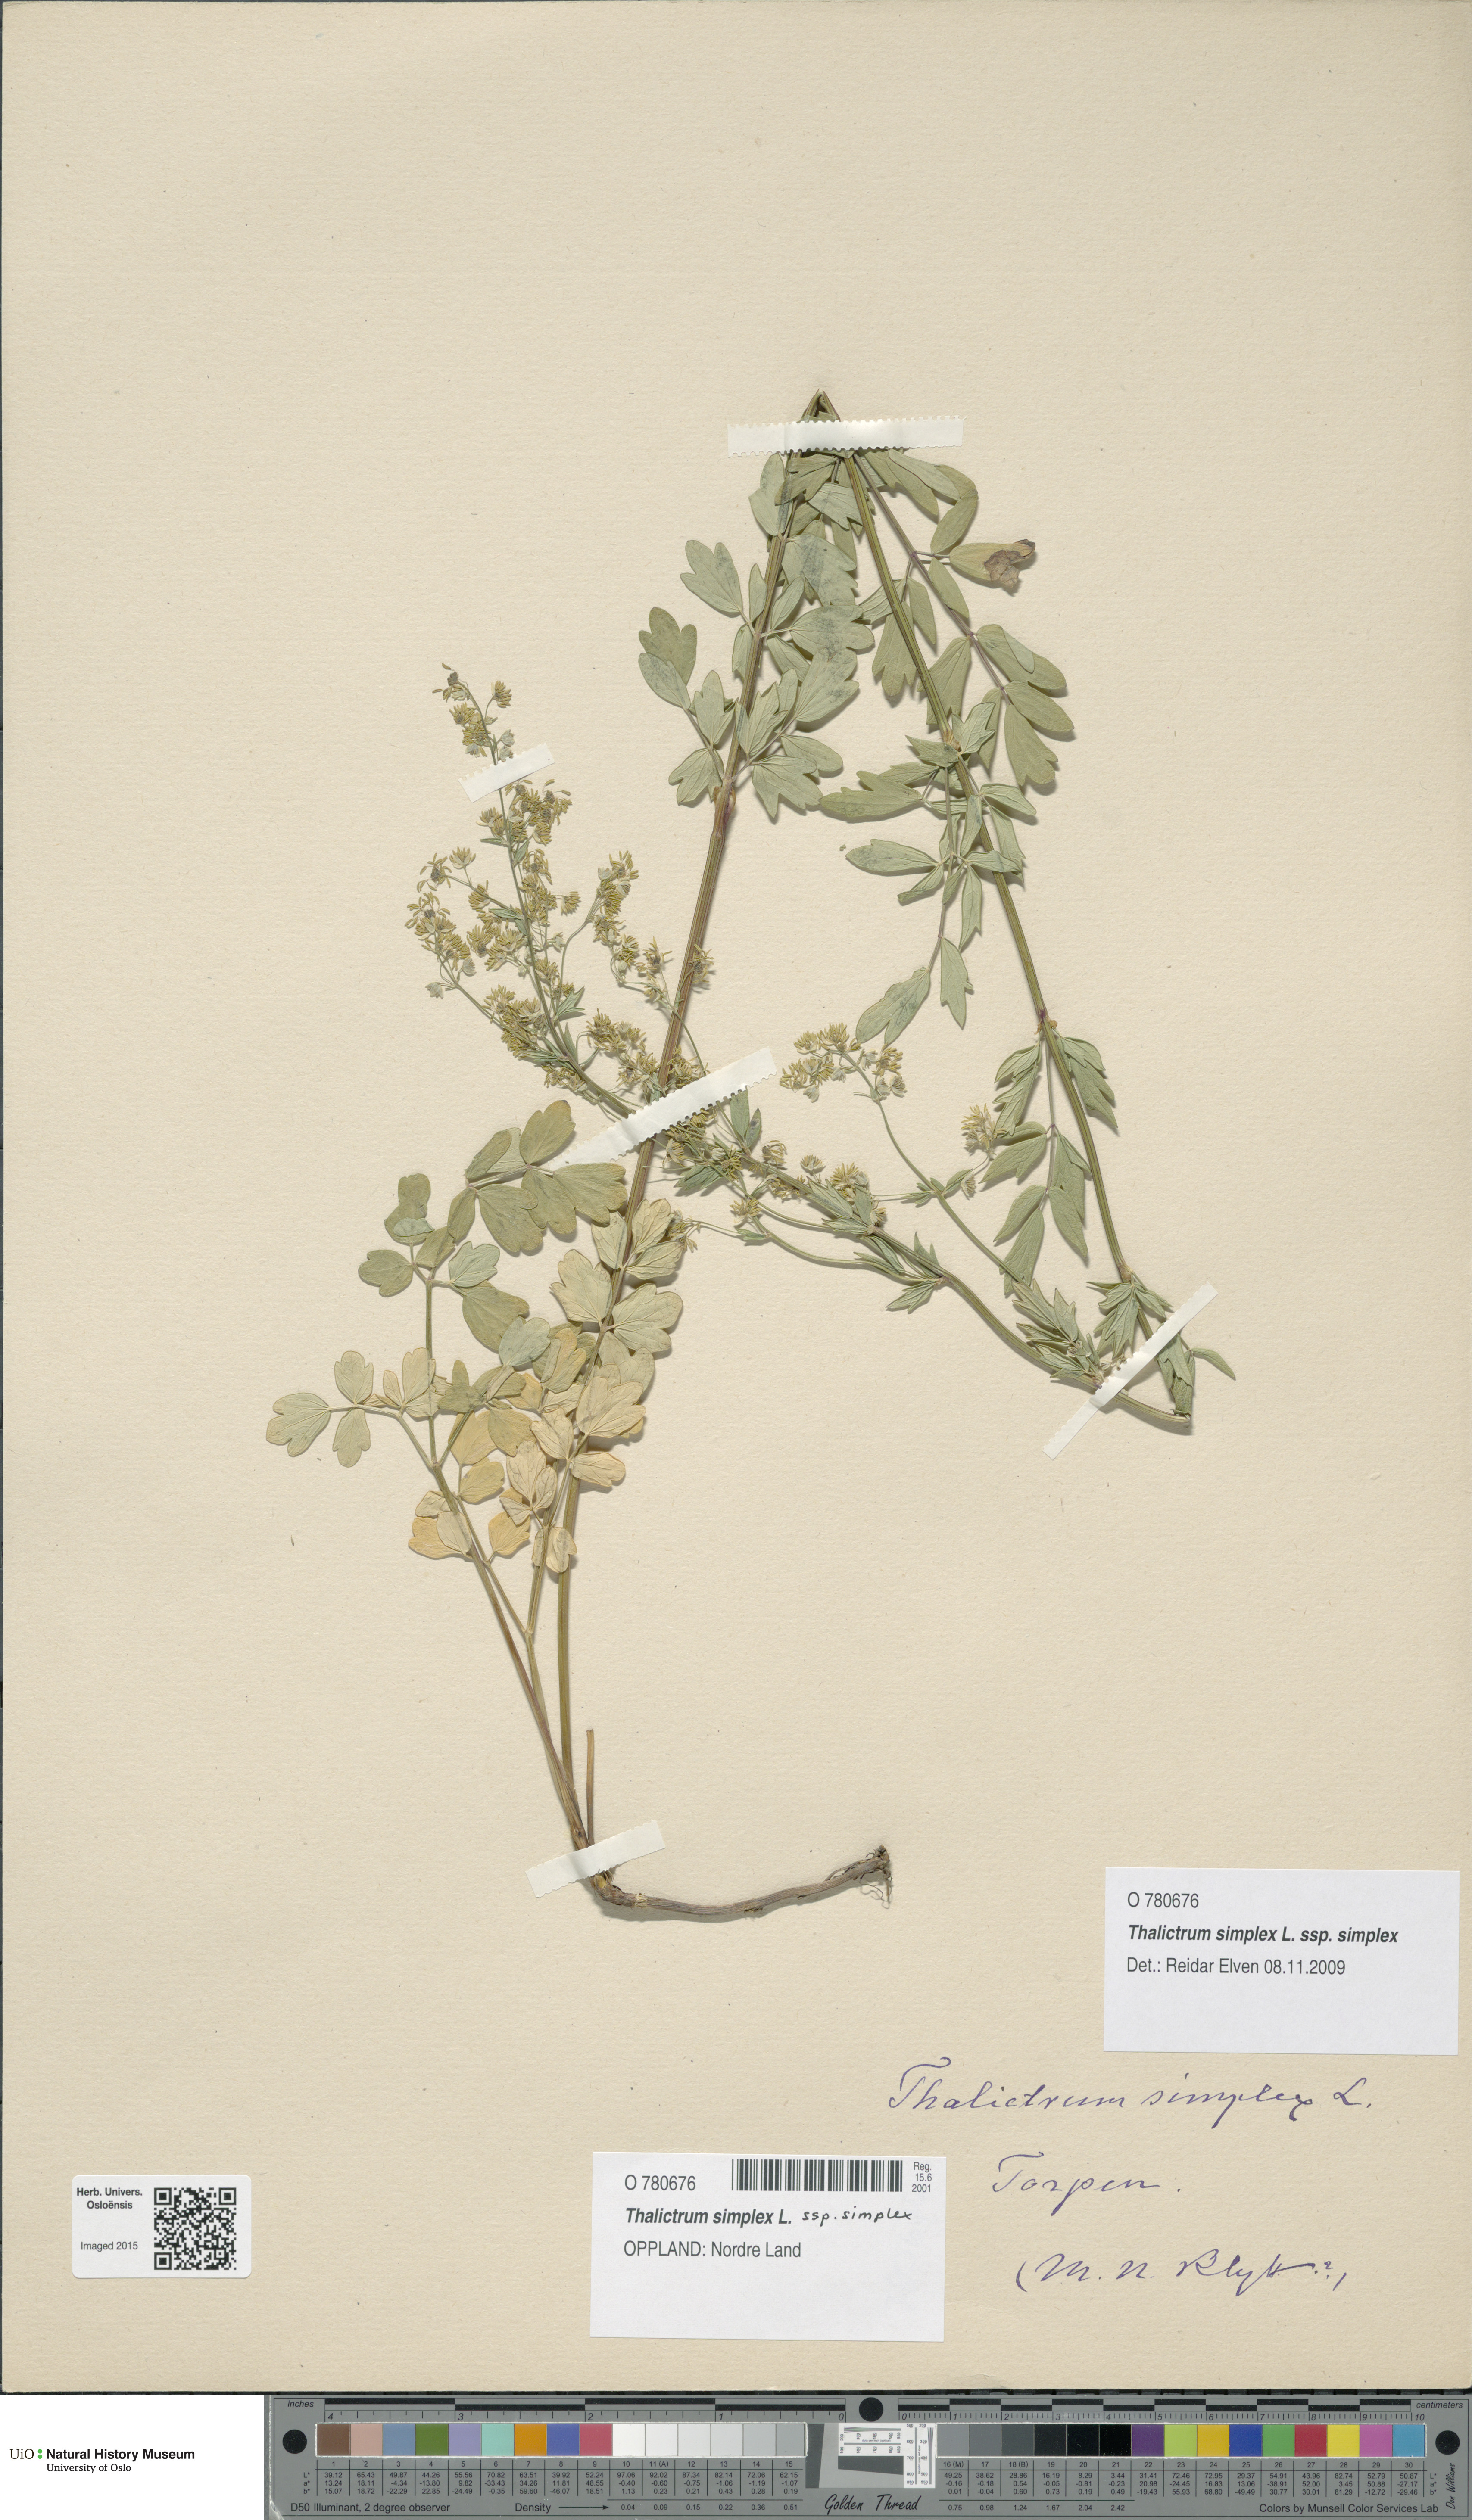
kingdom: Plantae
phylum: Tracheophyta
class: Magnoliopsida
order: Ranunculales
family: Ranunculaceae
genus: Thalictrum
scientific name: Thalictrum simplex
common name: Small meadow-rue
